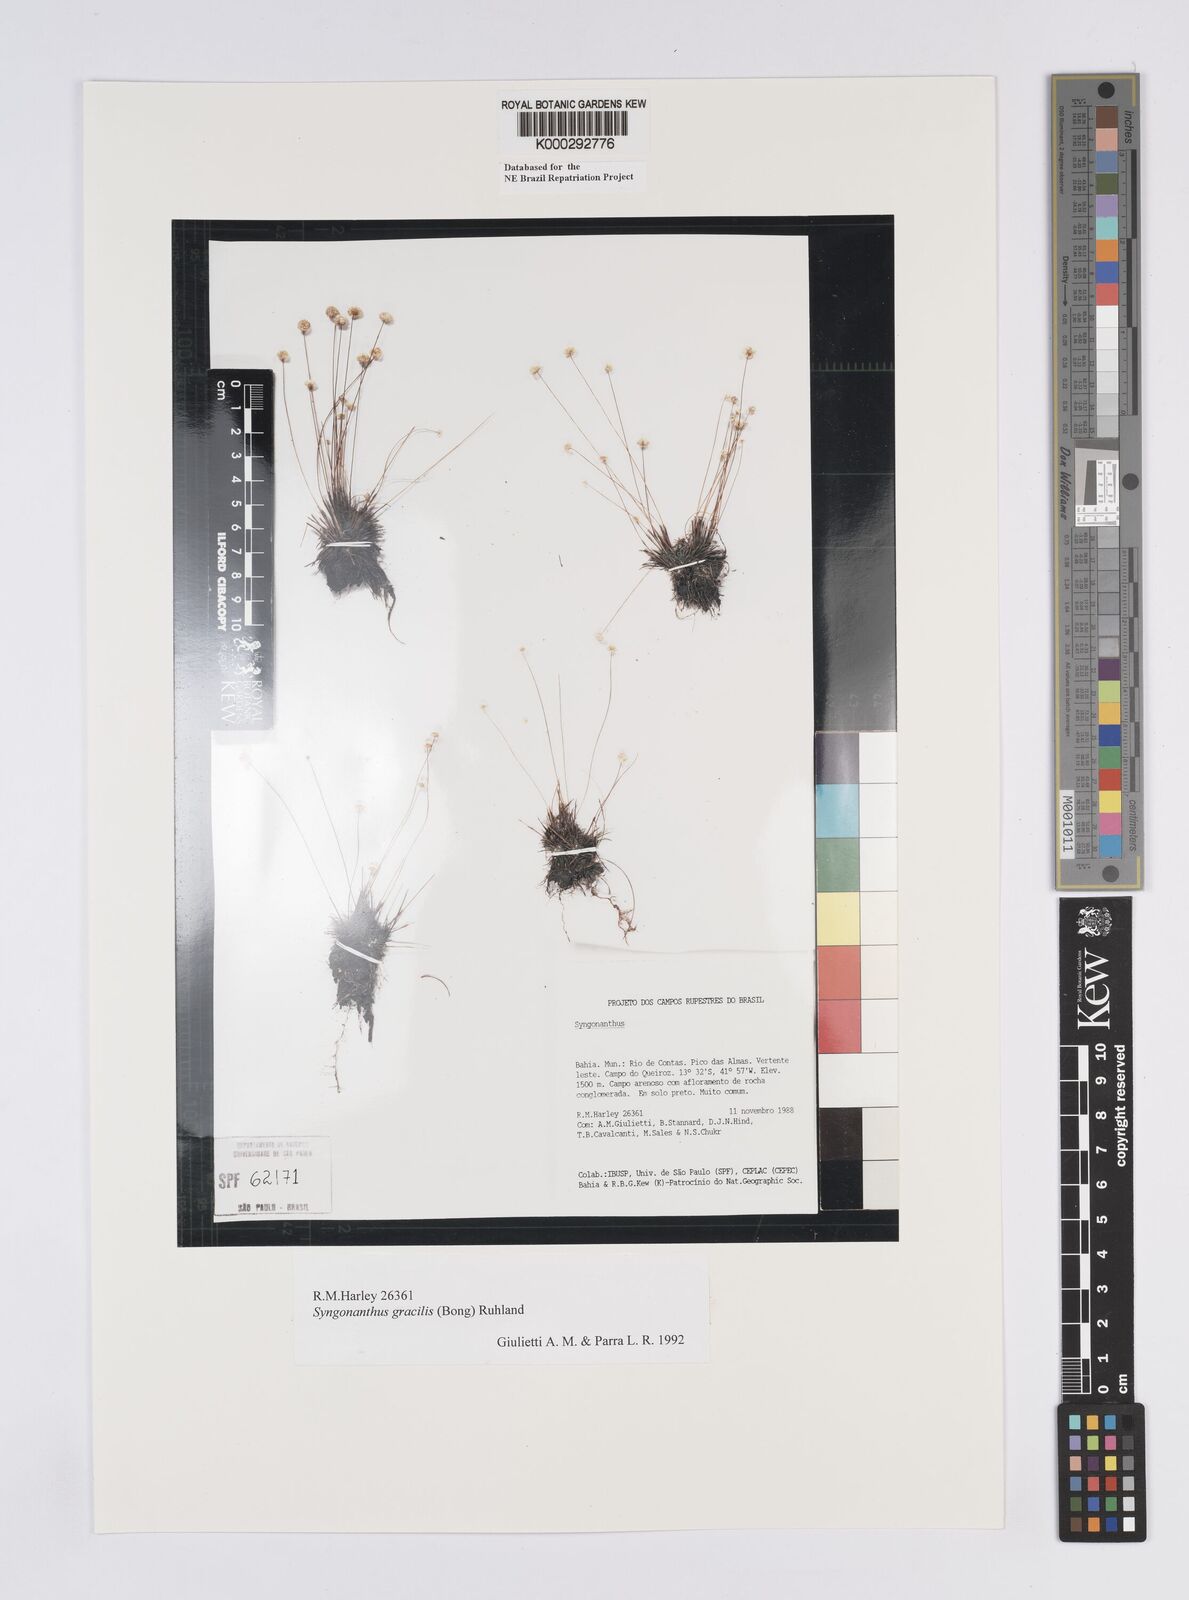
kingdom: Plantae
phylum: Tracheophyta
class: Liliopsida
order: Poales
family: Eriocaulaceae
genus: Syngonanthus
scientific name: Syngonanthus gracilis
